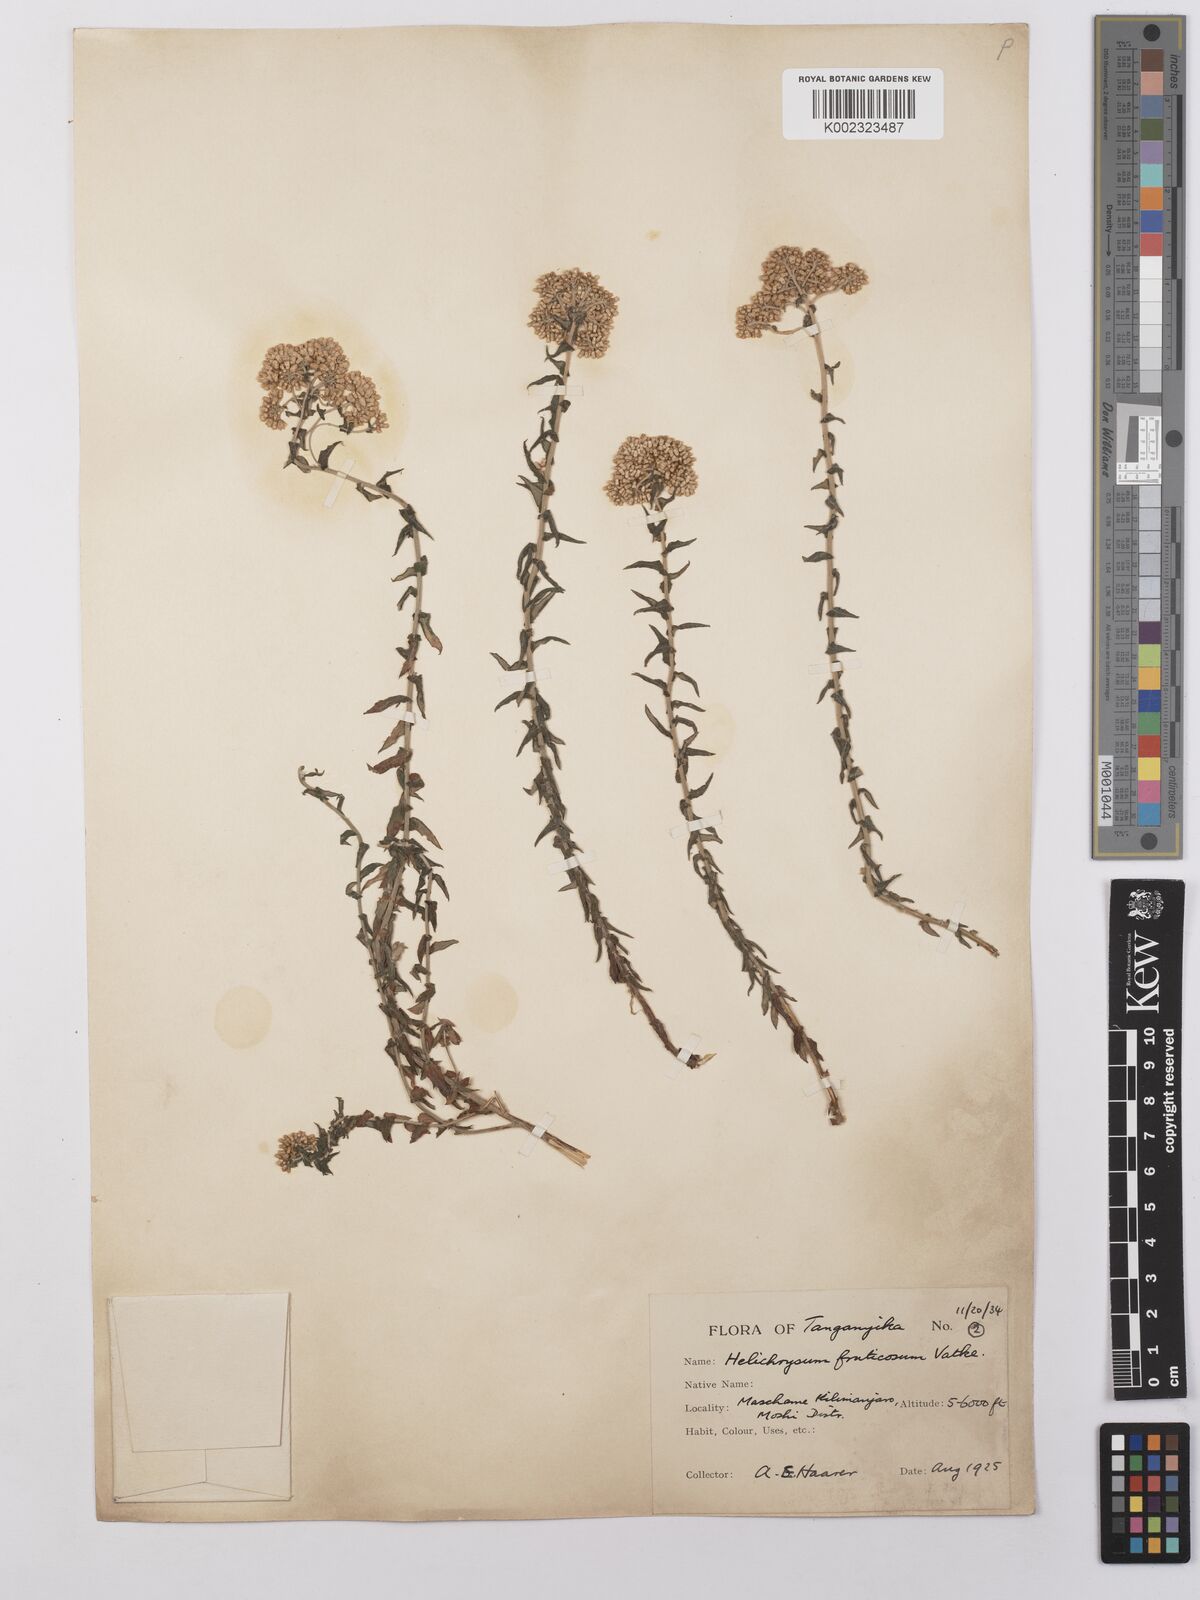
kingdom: Plantae
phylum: Tracheophyta
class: Magnoliopsida
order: Asterales
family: Asteraceae
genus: Helichrysum
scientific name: Helichrysum forskahlii
